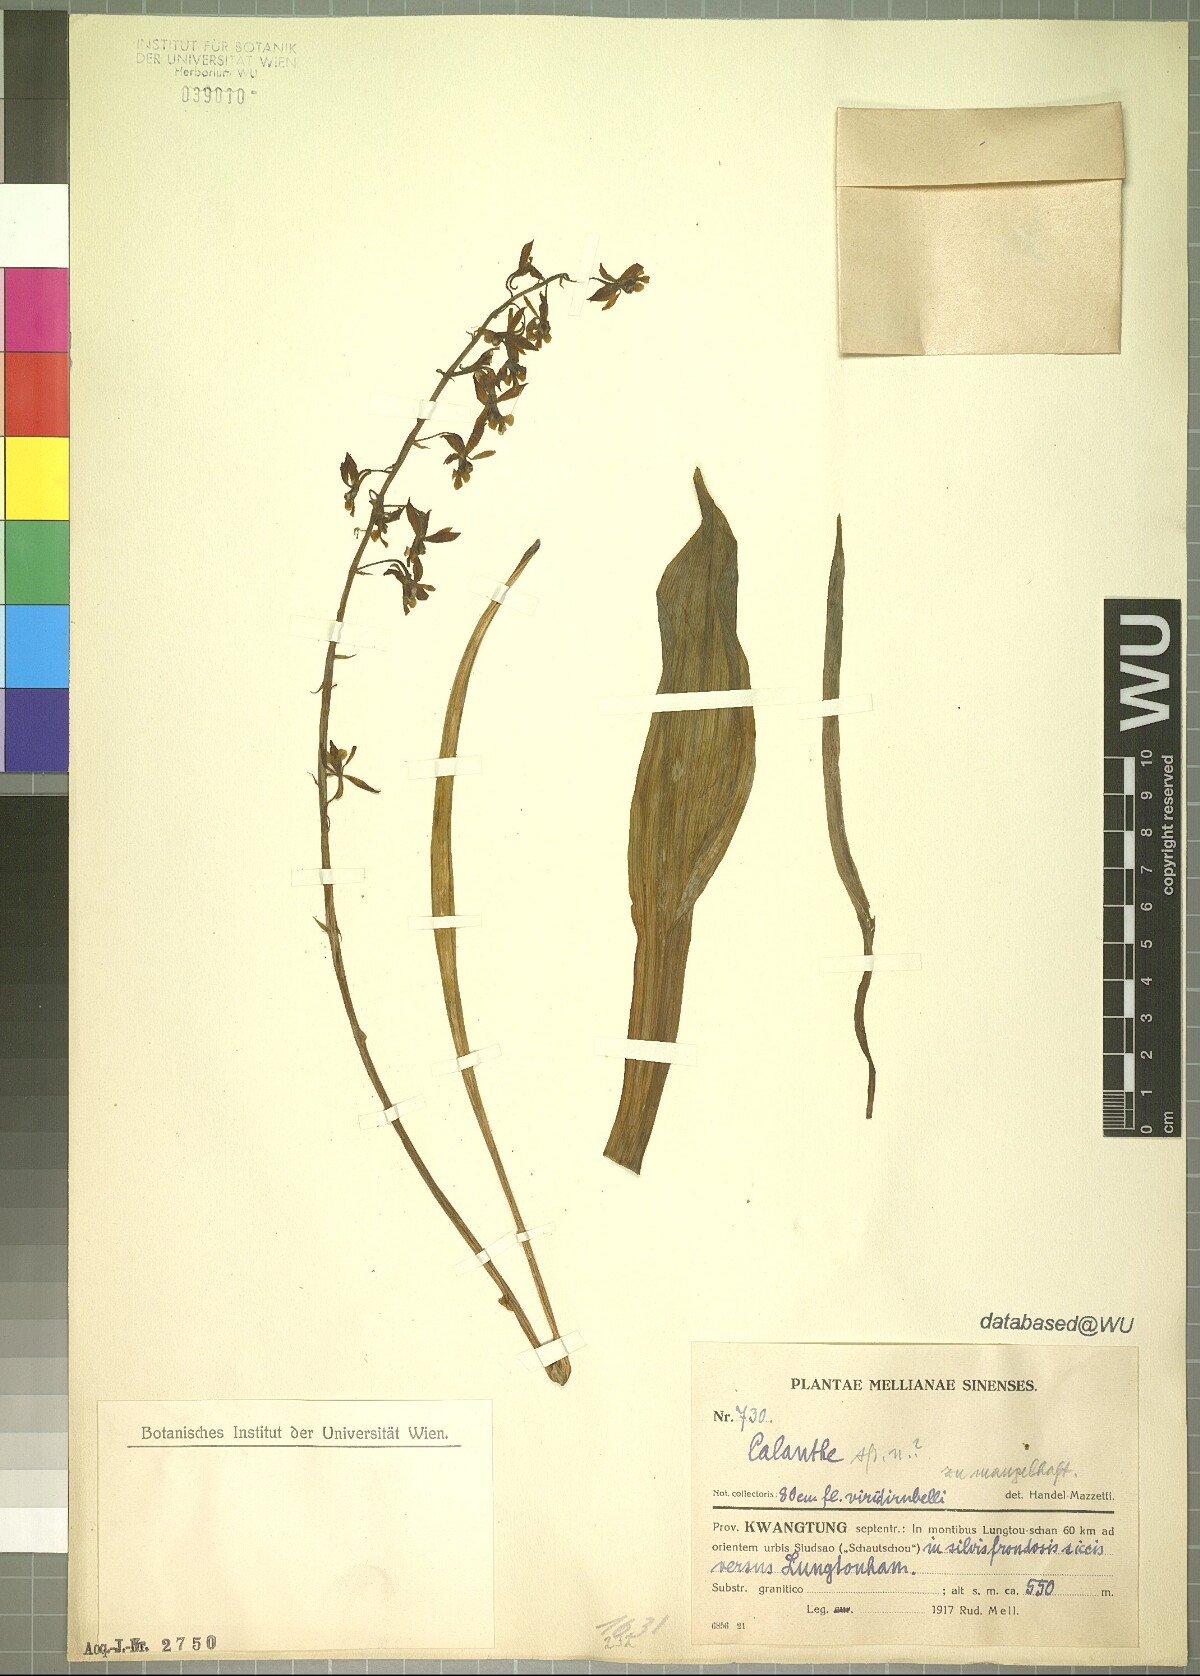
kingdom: Plantae
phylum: Tracheophyta
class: Liliopsida
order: Asparagales
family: Orchidaceae
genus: Calanthe
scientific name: Calanthe
